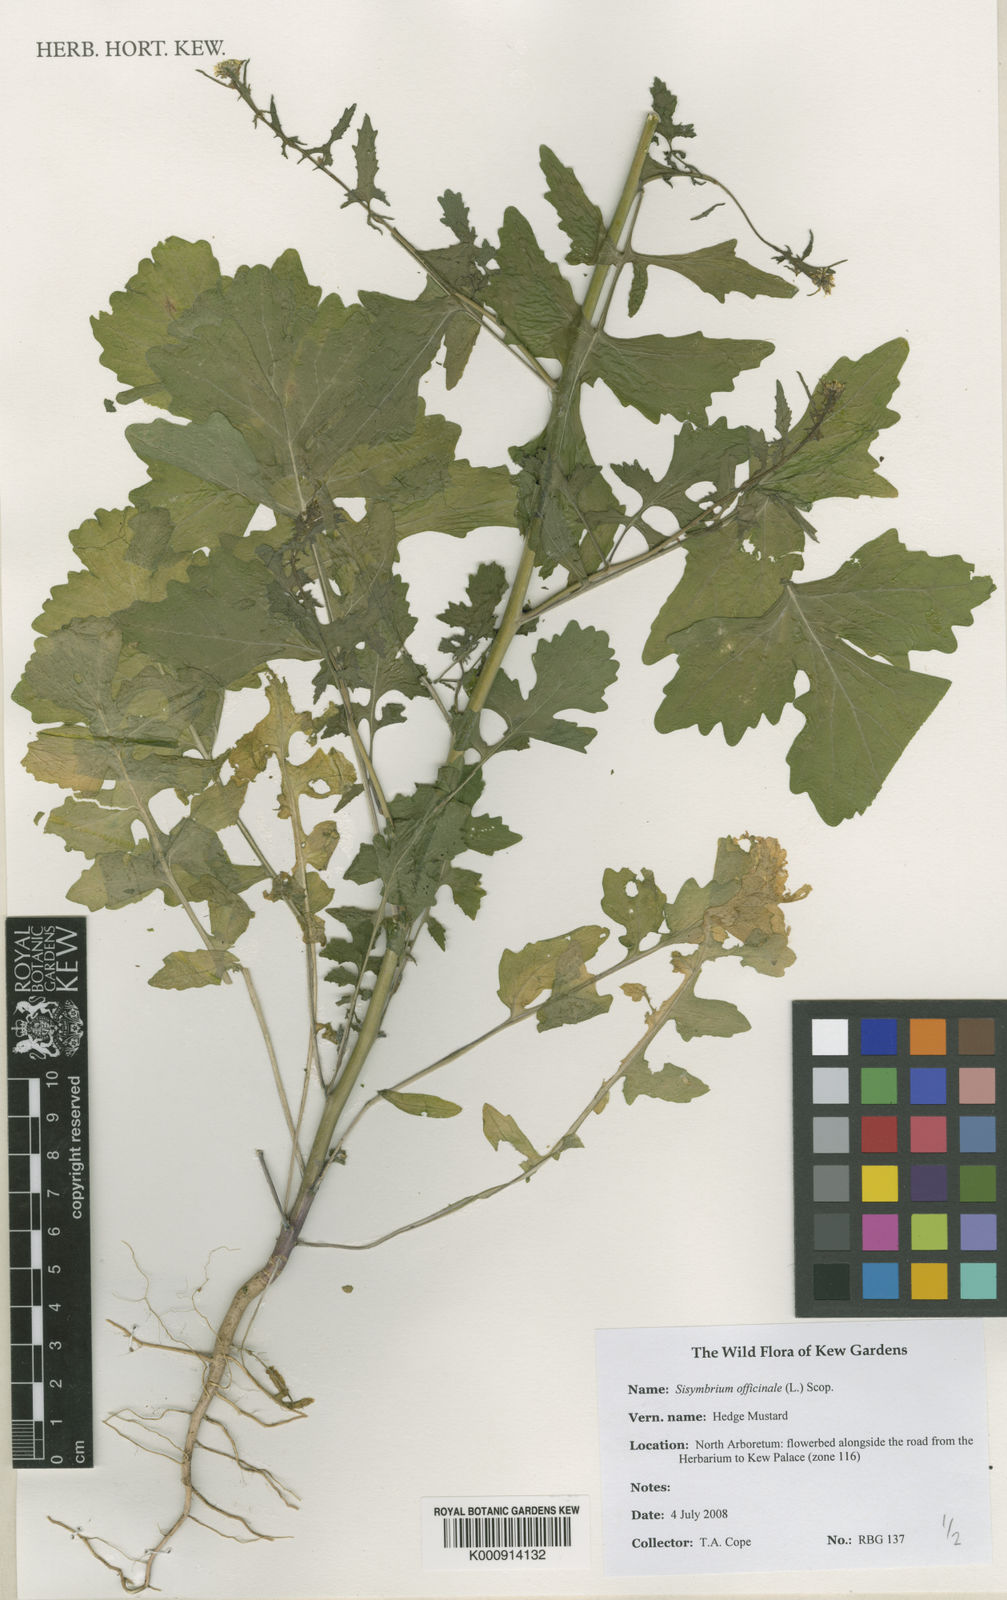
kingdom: Plantae
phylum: Tracheophyta
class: Magnoliopsida
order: Brassicales
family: Brassicaceae
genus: Sisymbrium
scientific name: Sisymbrium officinale
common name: Hedge mustard
